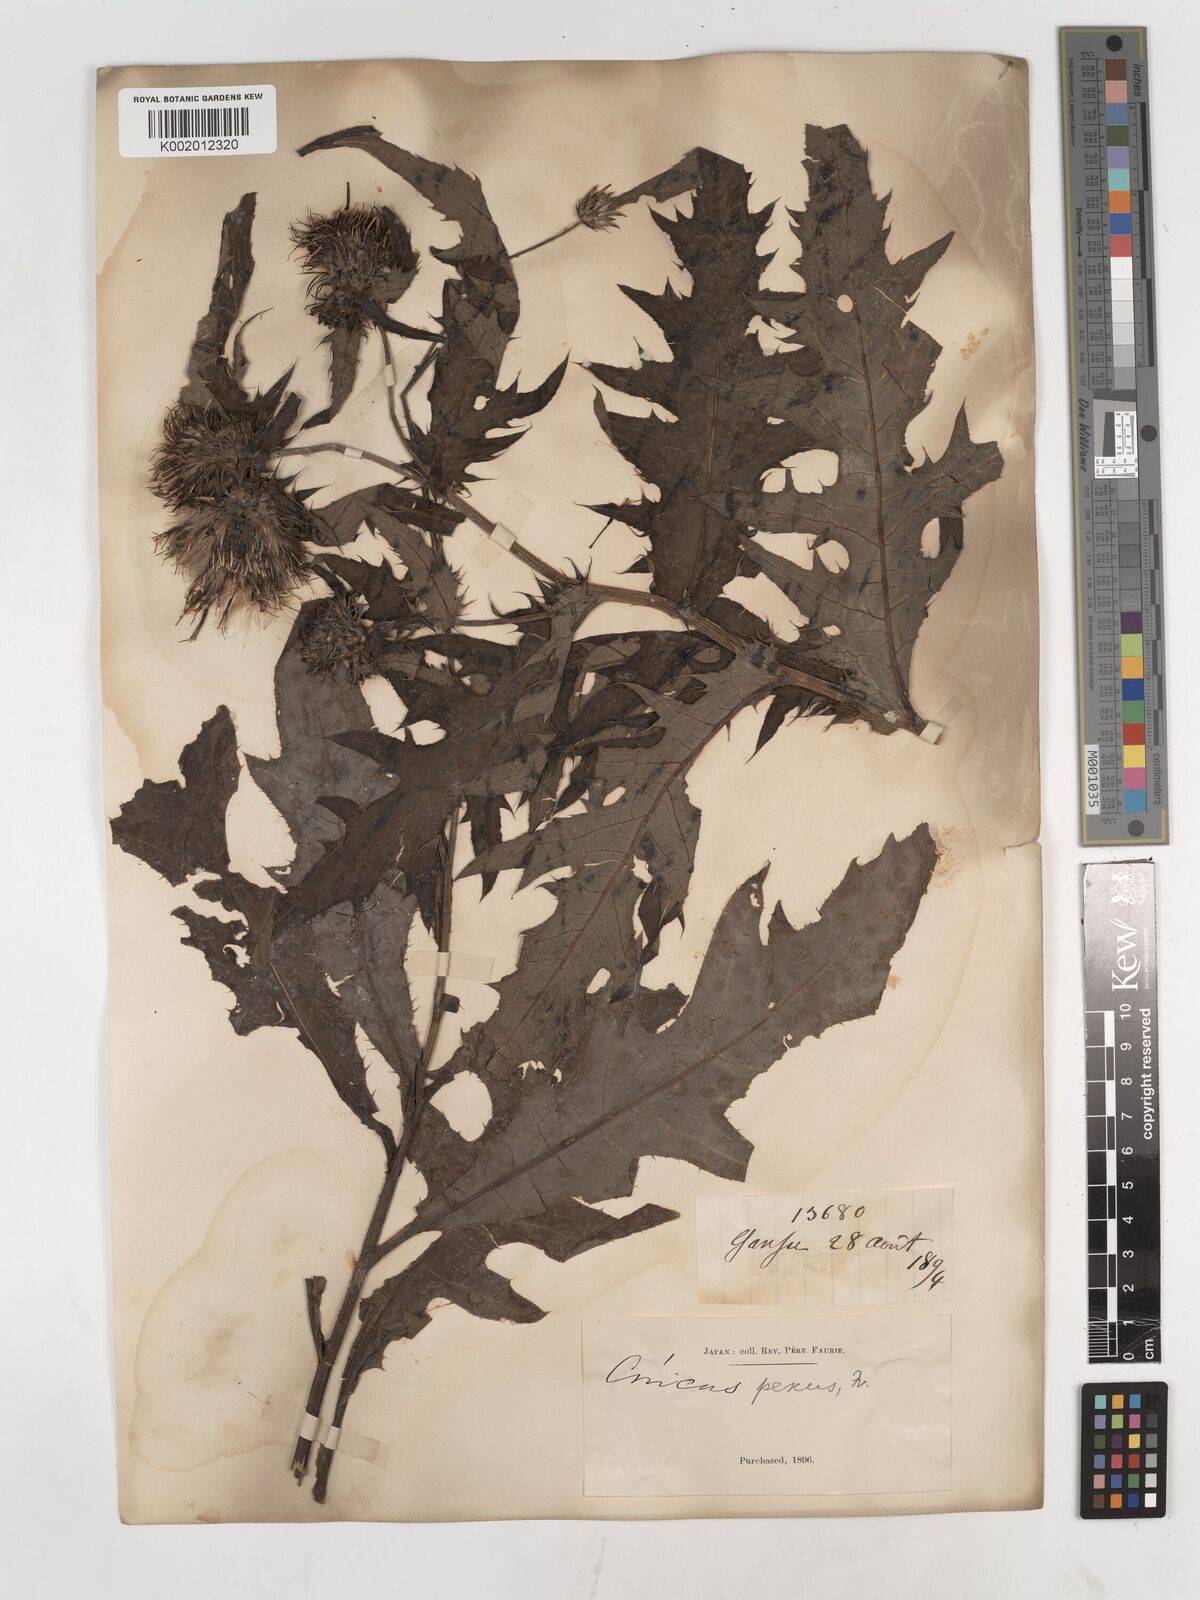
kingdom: Plantae
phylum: Tracheophyta
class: Magnoliopsida
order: Asterales
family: Asteraceae
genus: Cirsium
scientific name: Cirsium suffultum
